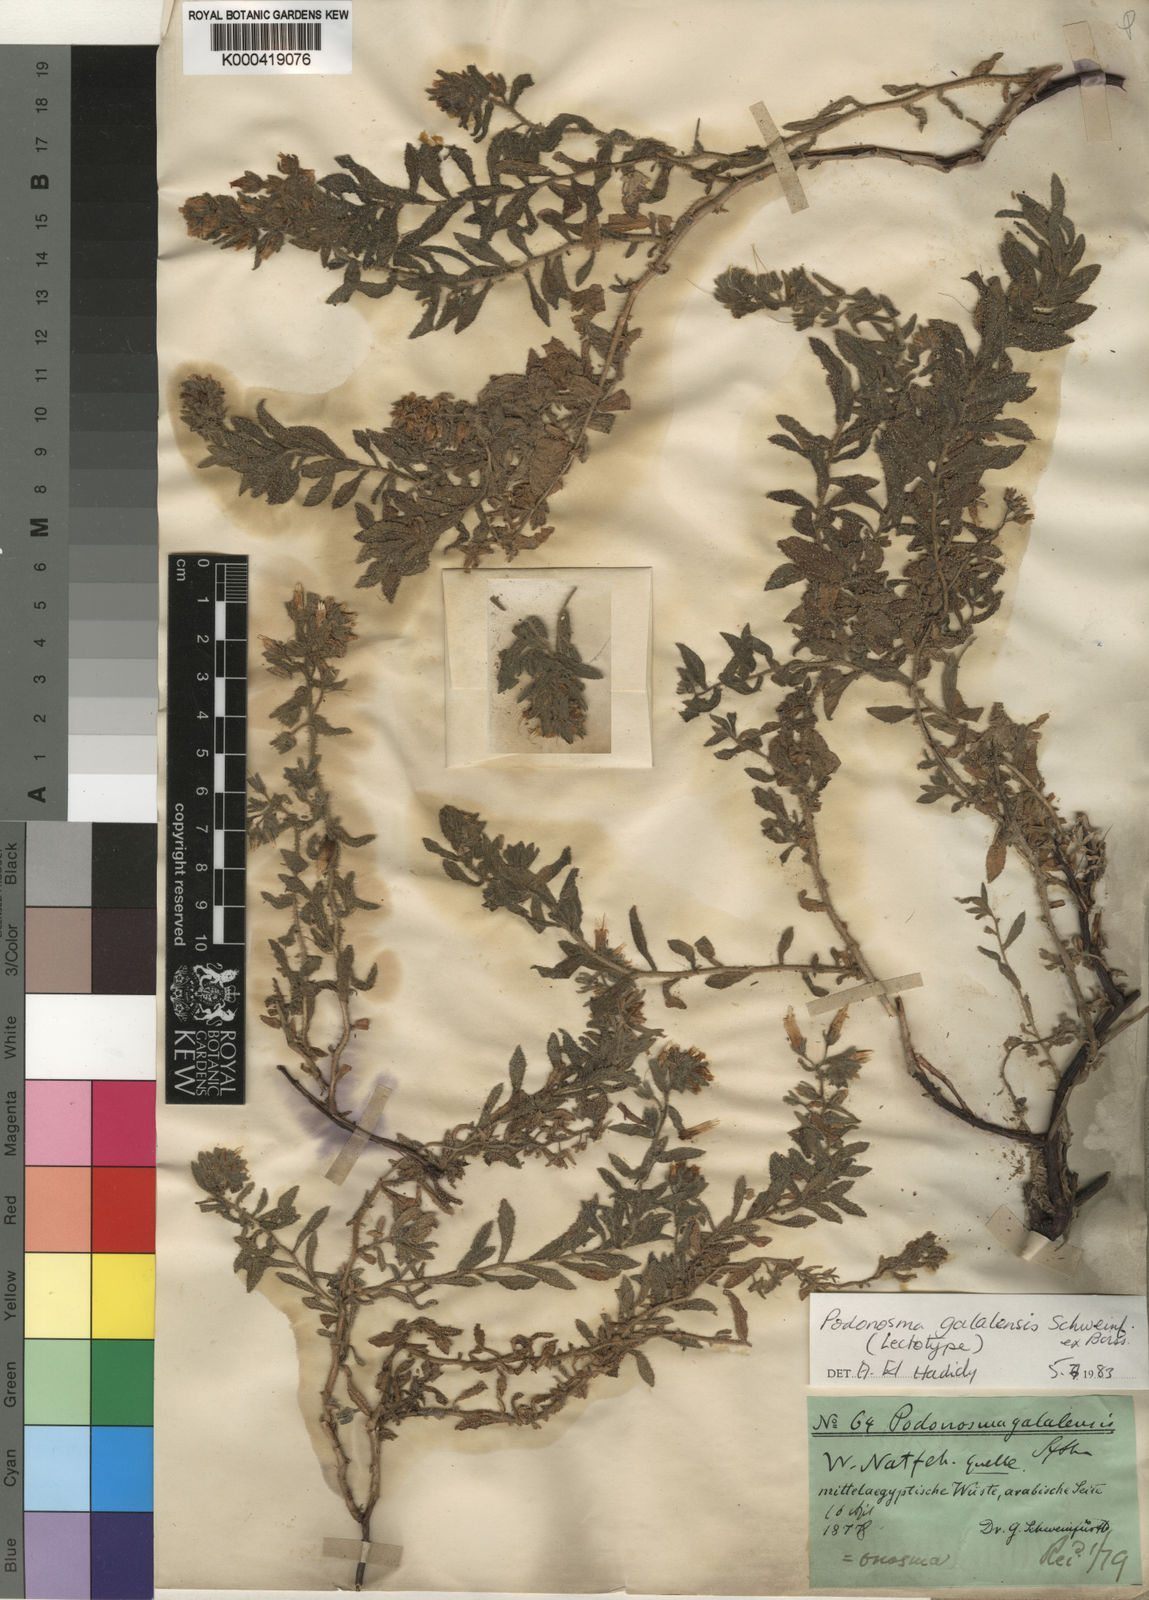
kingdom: Plantae
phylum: Tracheophyta
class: Magnoliopsida
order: Boraginales
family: Boraginaceae
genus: Podonosma
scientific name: Podonosma galalensis
